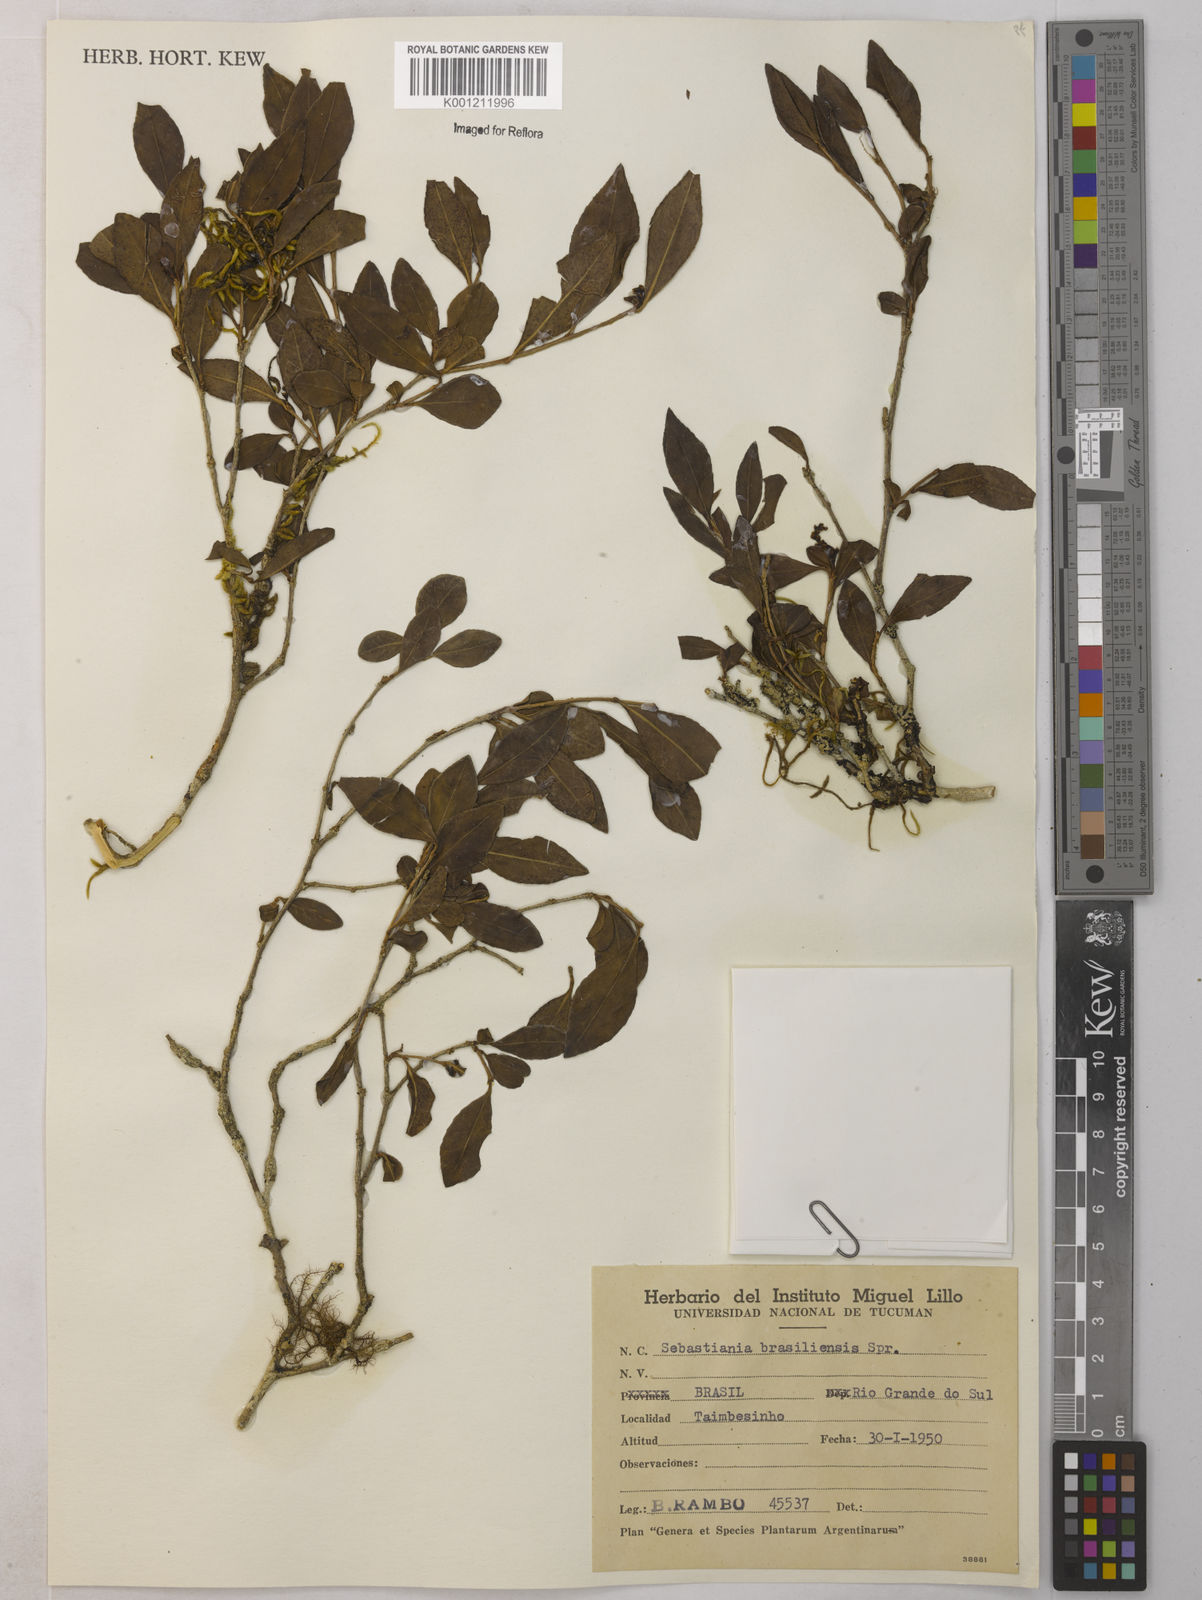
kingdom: Plantae
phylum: Tracheophyta
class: Magnoliopsida
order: Malpighiales
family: Euphorbiaceae
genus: Sebastiania
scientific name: Sebastiania brasiliensis
